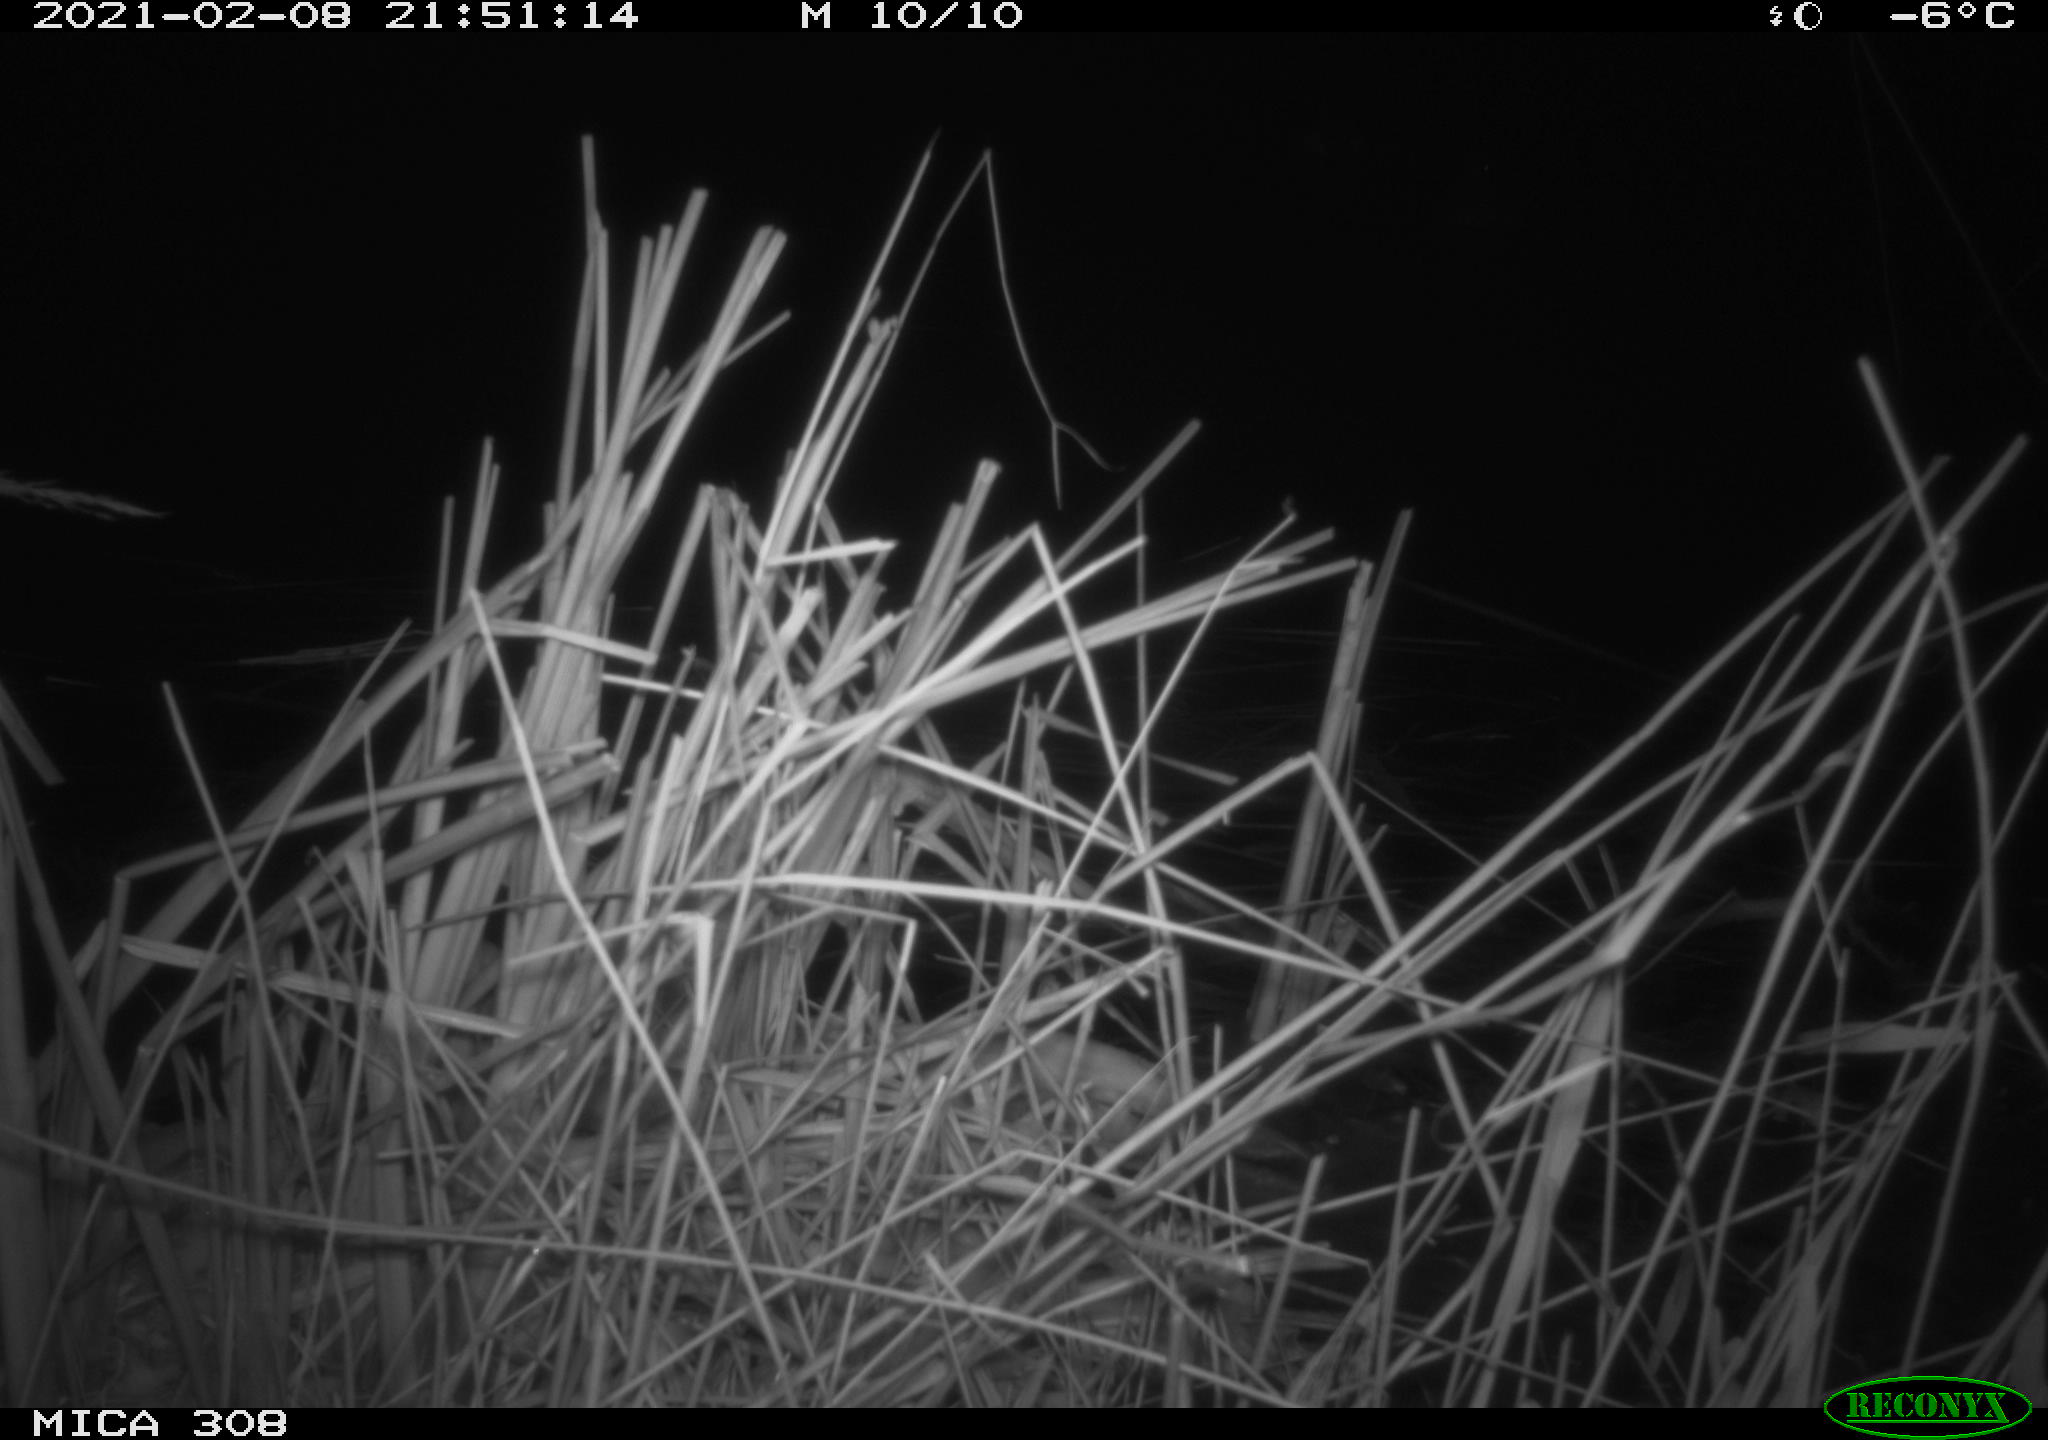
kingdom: Animalia
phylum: Chordata
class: Aves
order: Anseriformes
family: Anatidae
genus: Anas
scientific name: Anas platyrhynchos
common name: Mallard
